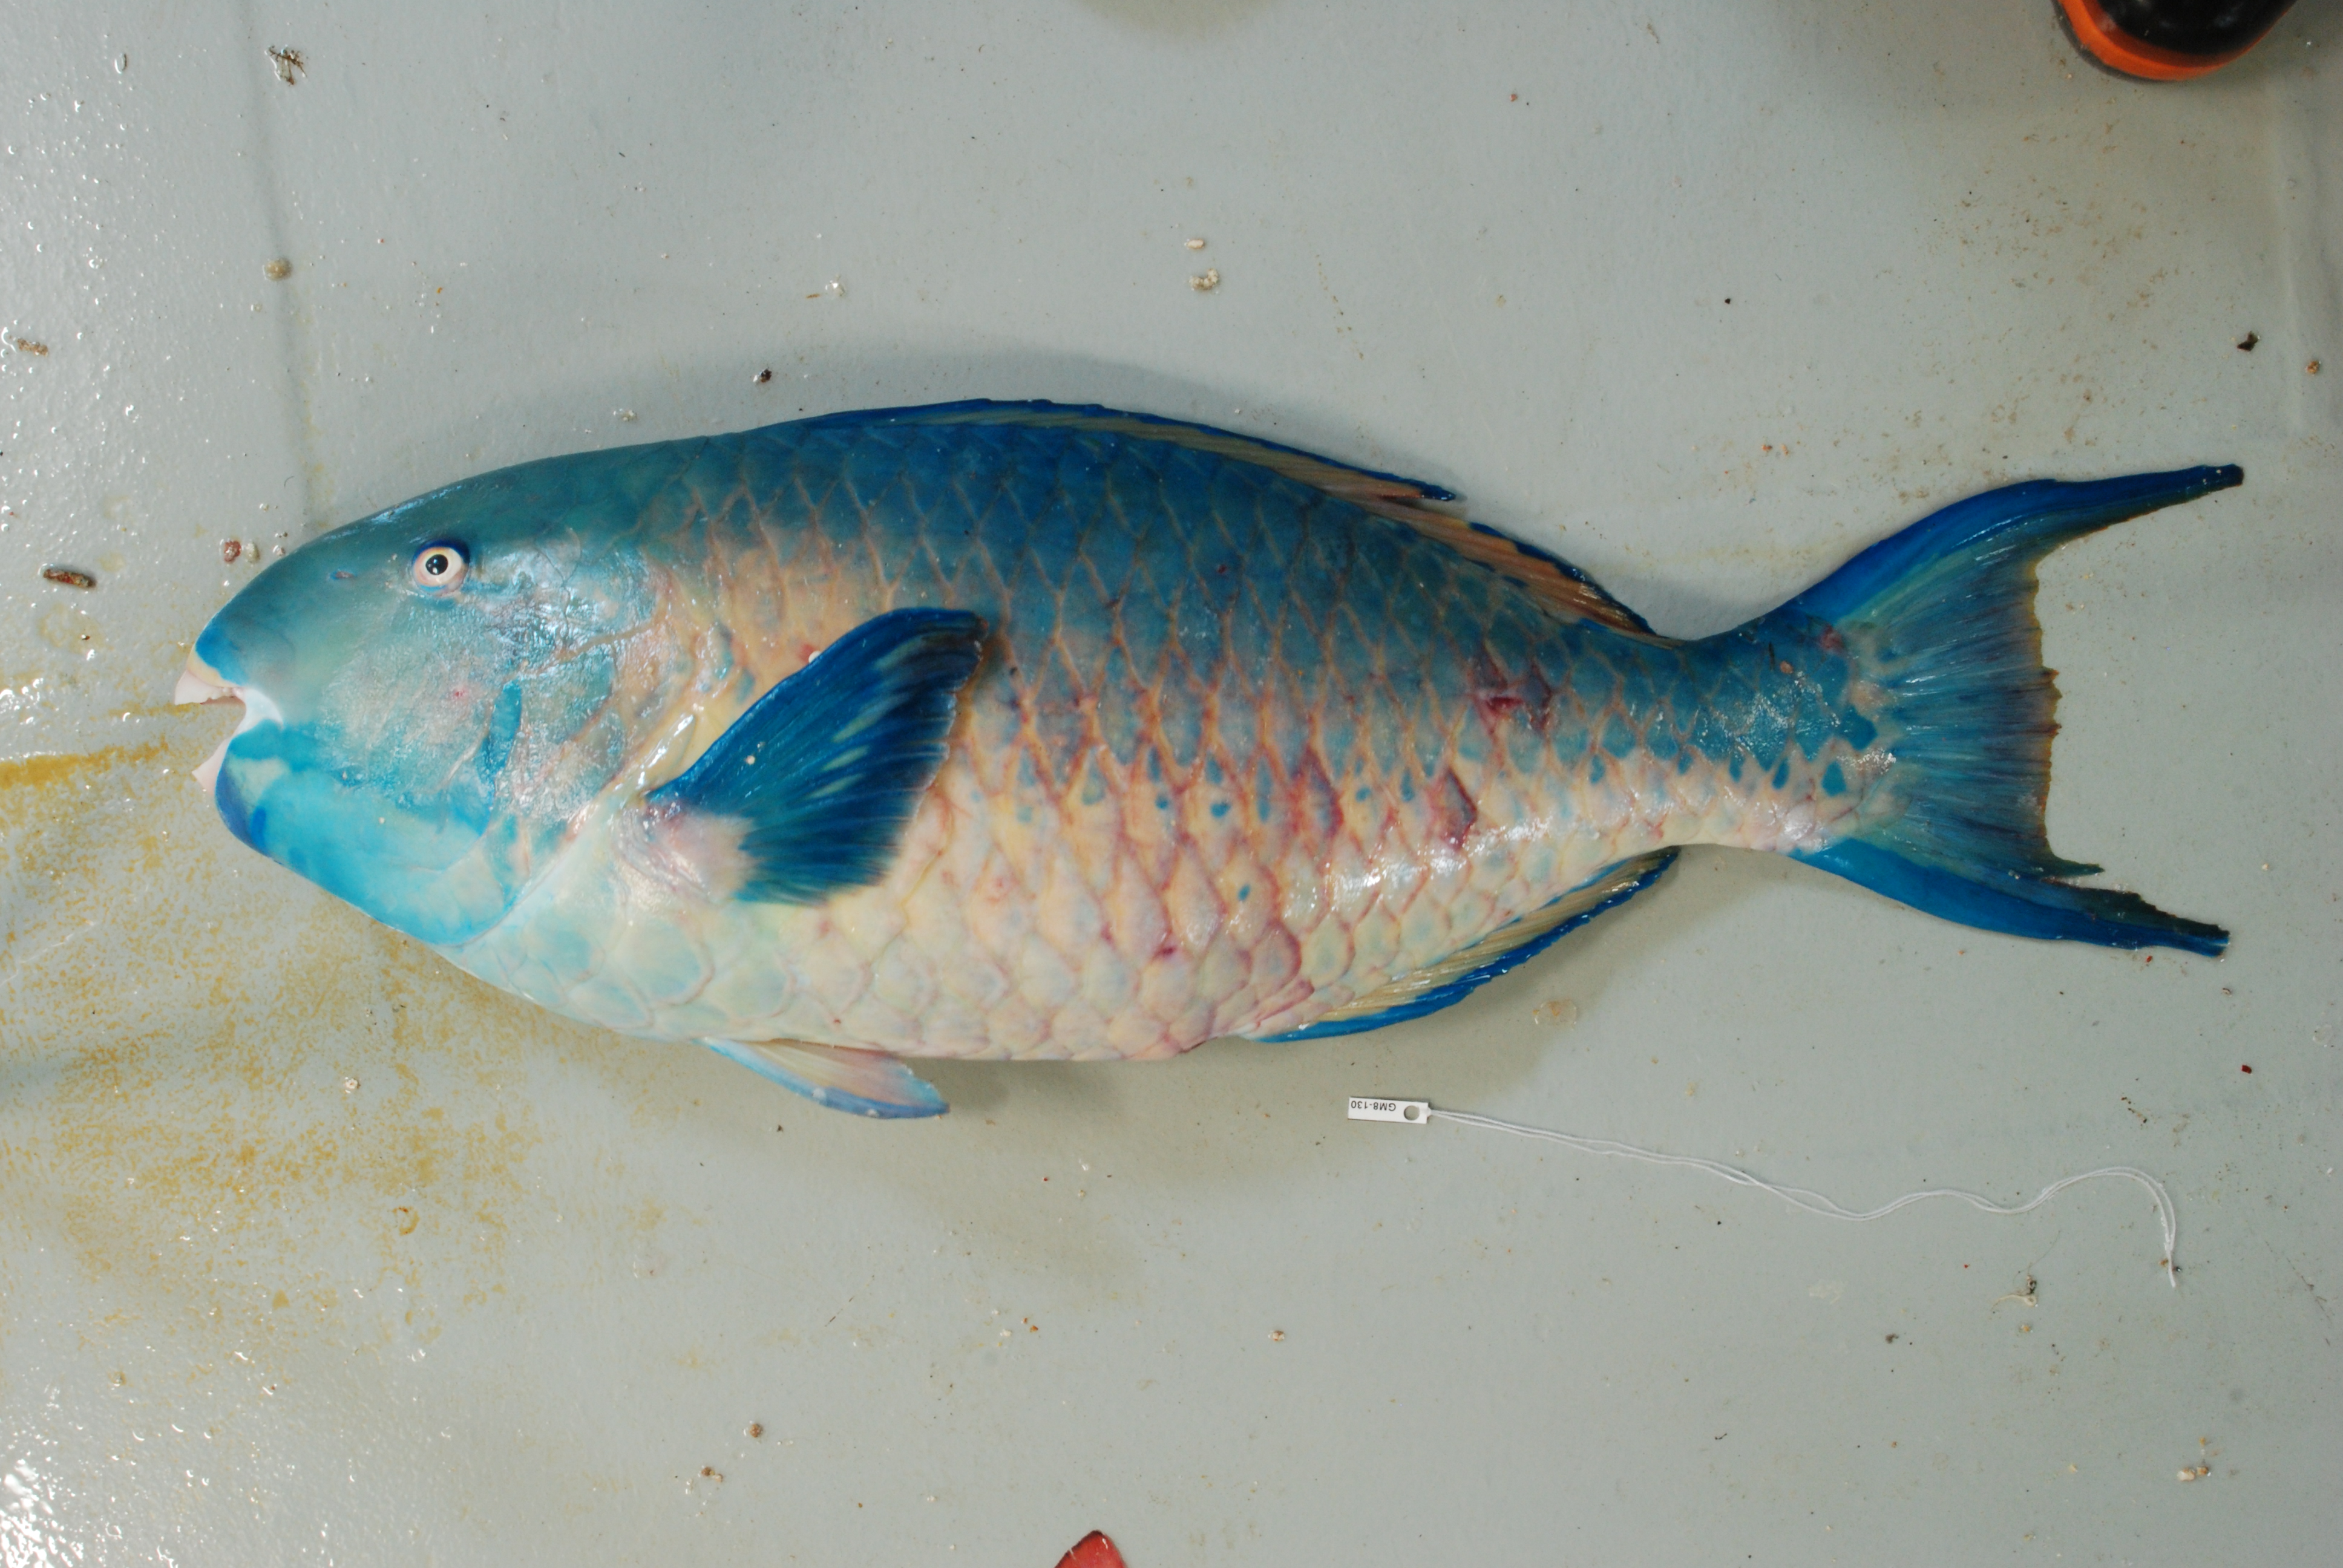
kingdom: Animalia
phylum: Chordata
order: Perciformes
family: Scaridae
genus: Scarus
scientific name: Scarus ghobban
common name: Blue-barred parrotfish
